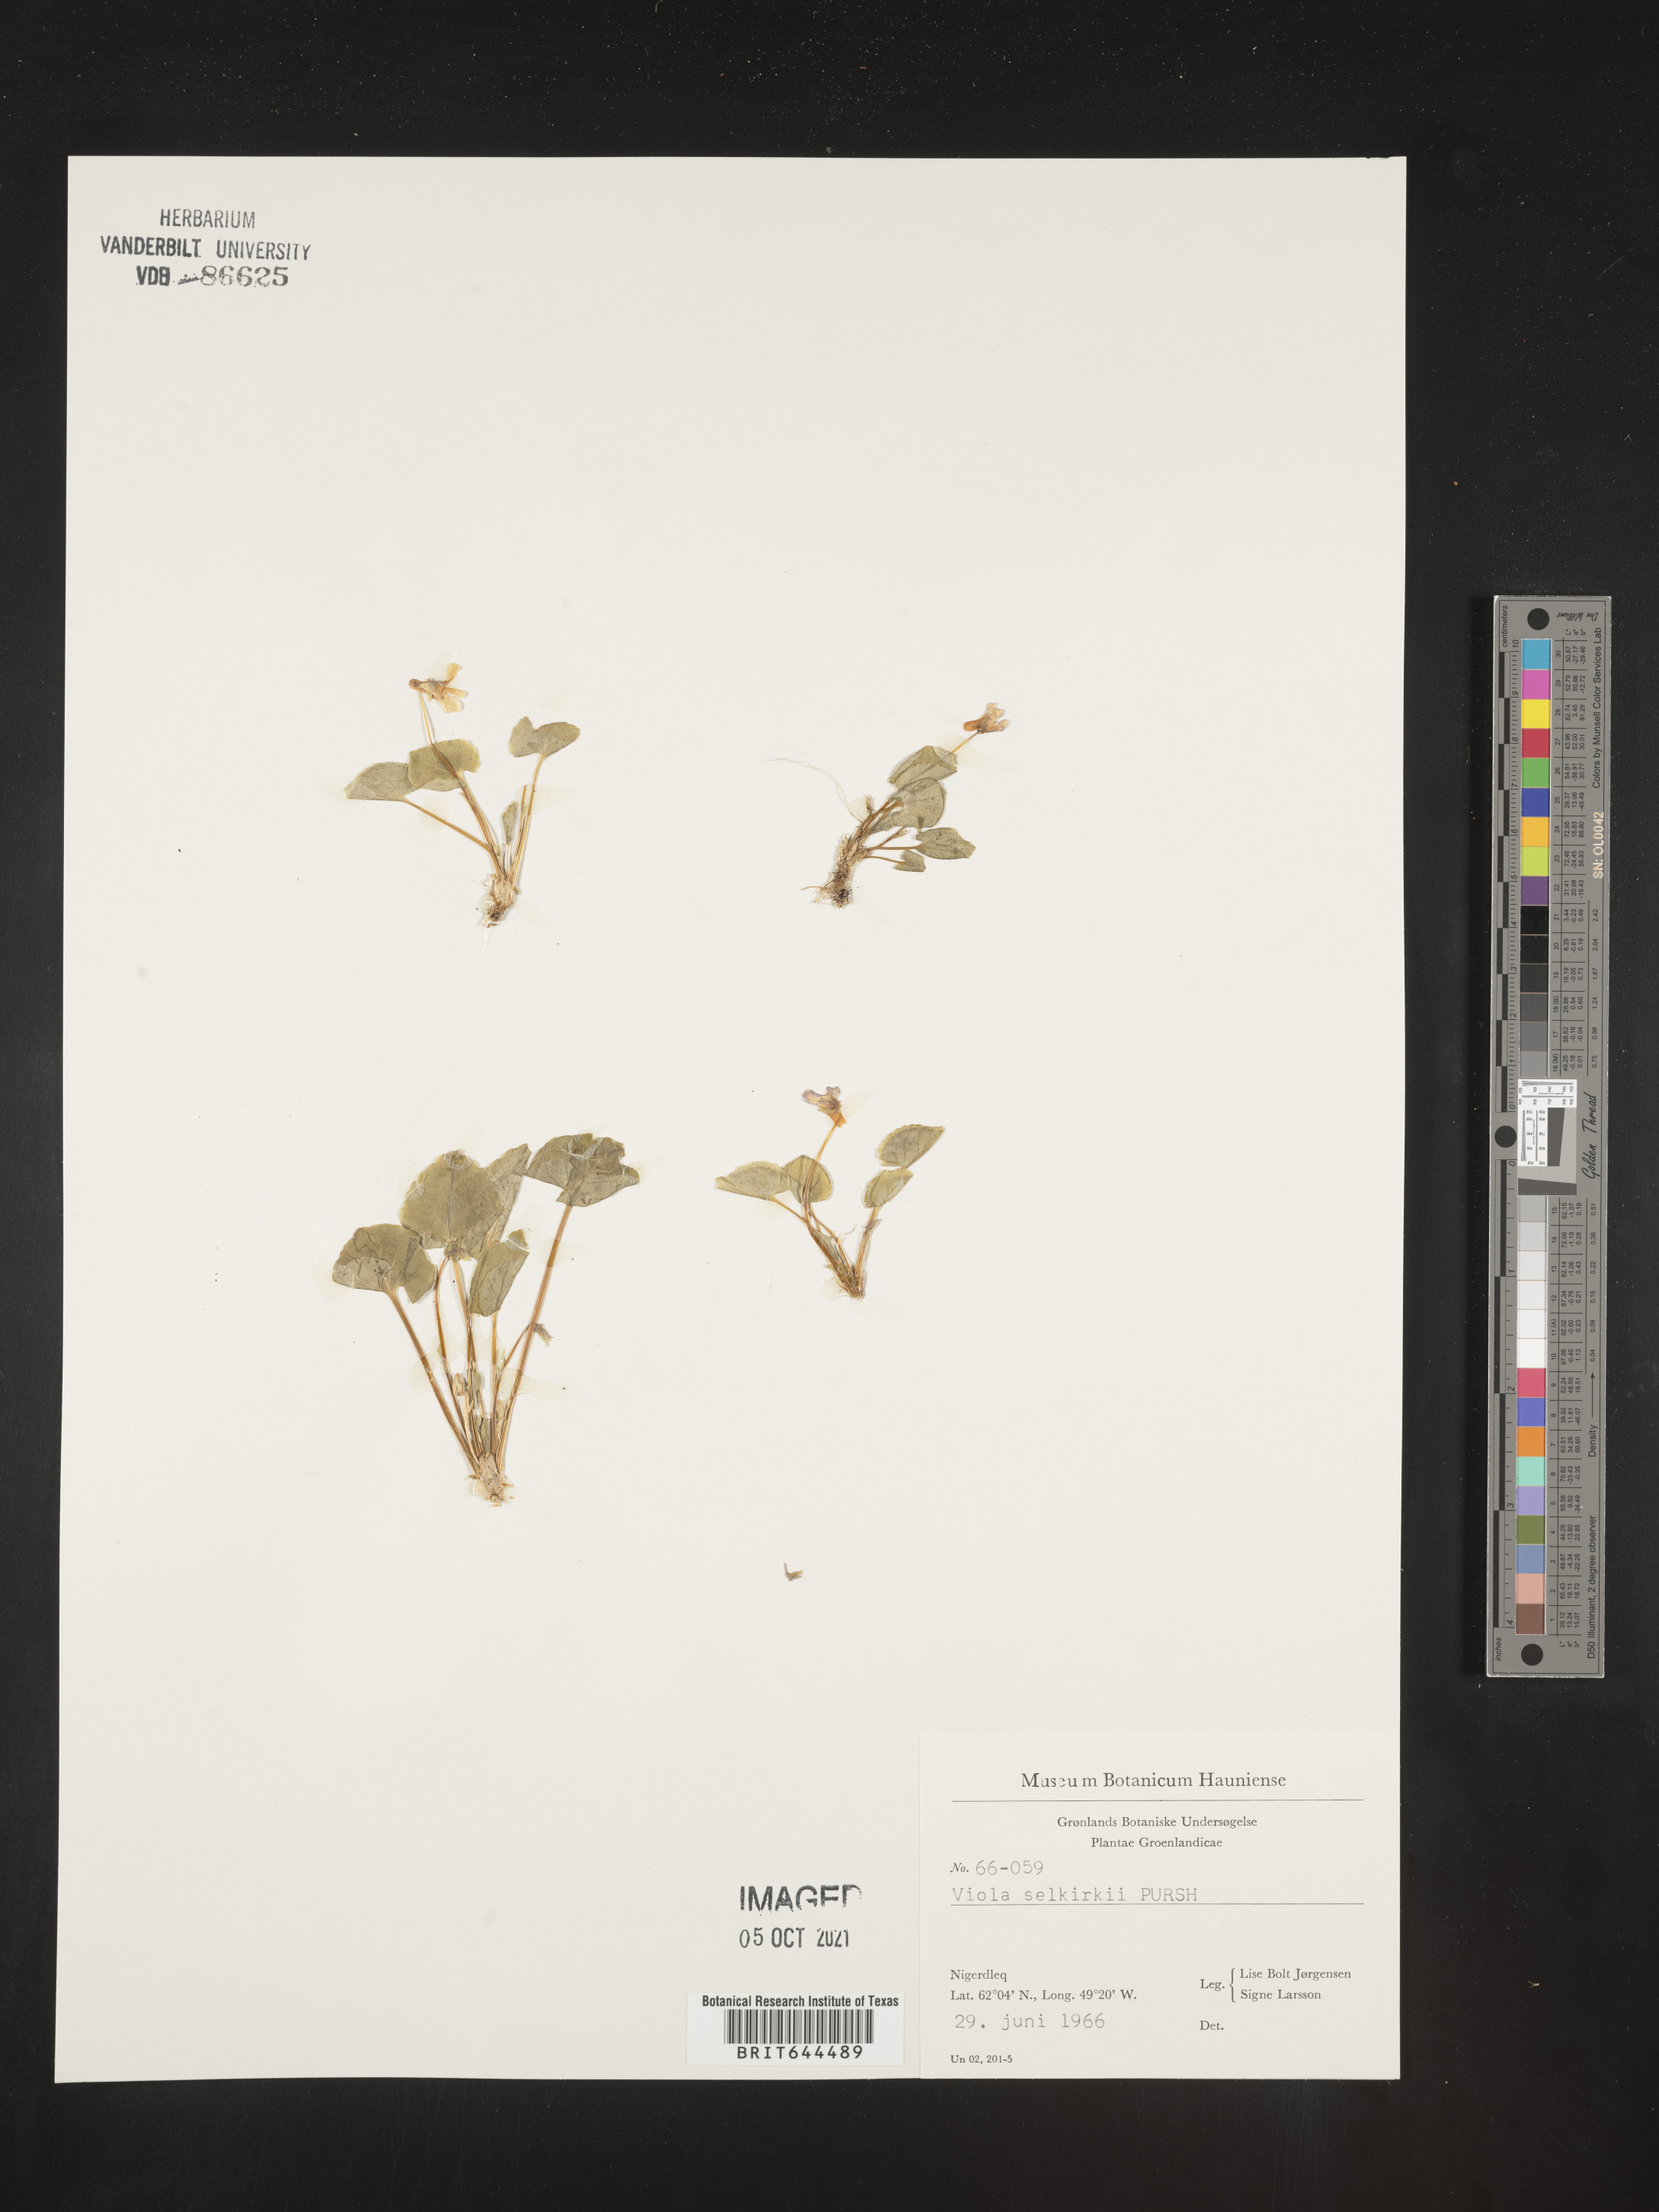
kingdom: Plantae
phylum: Tracheophyta
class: Magnoliopsida
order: Malpighiales
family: Violaceae
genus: Viola
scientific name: Viola
